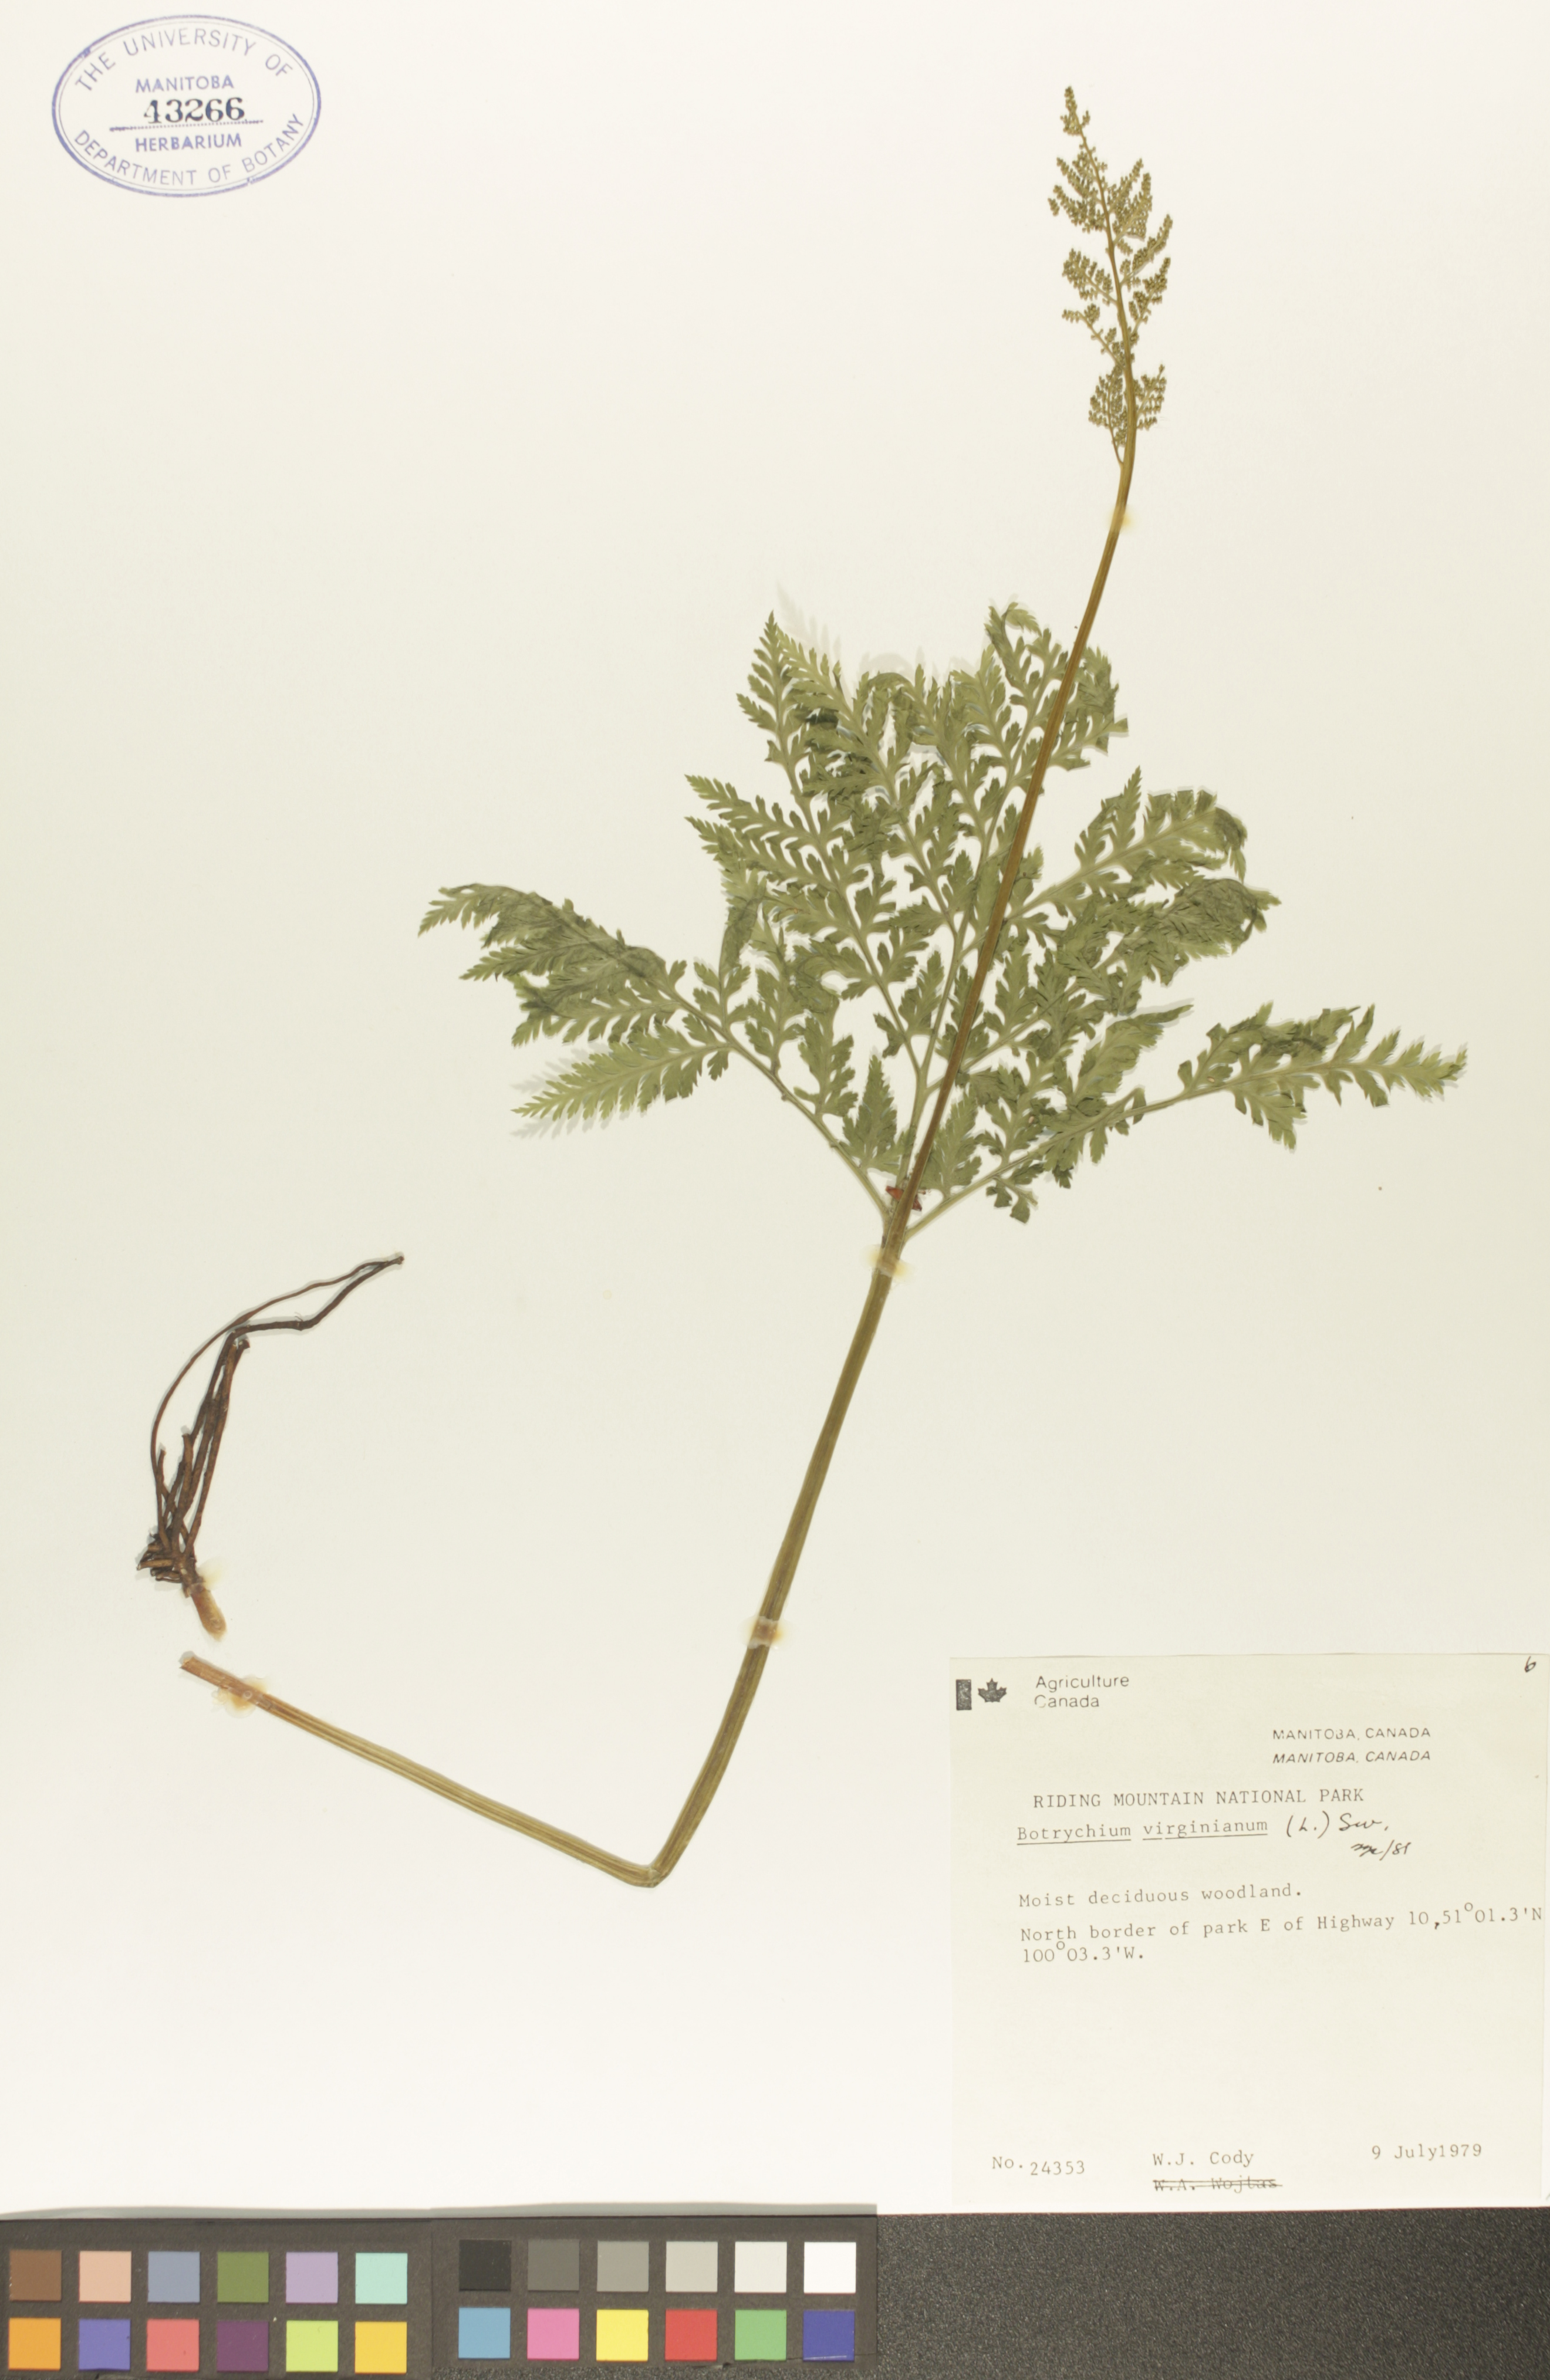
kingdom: Plantae
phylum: Tracheophyta
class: Polypodiopsida
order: Ophioglossales
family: Ophioglossaceae
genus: Botrypus
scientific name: Botrypus virginianus
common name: Common grapefern
